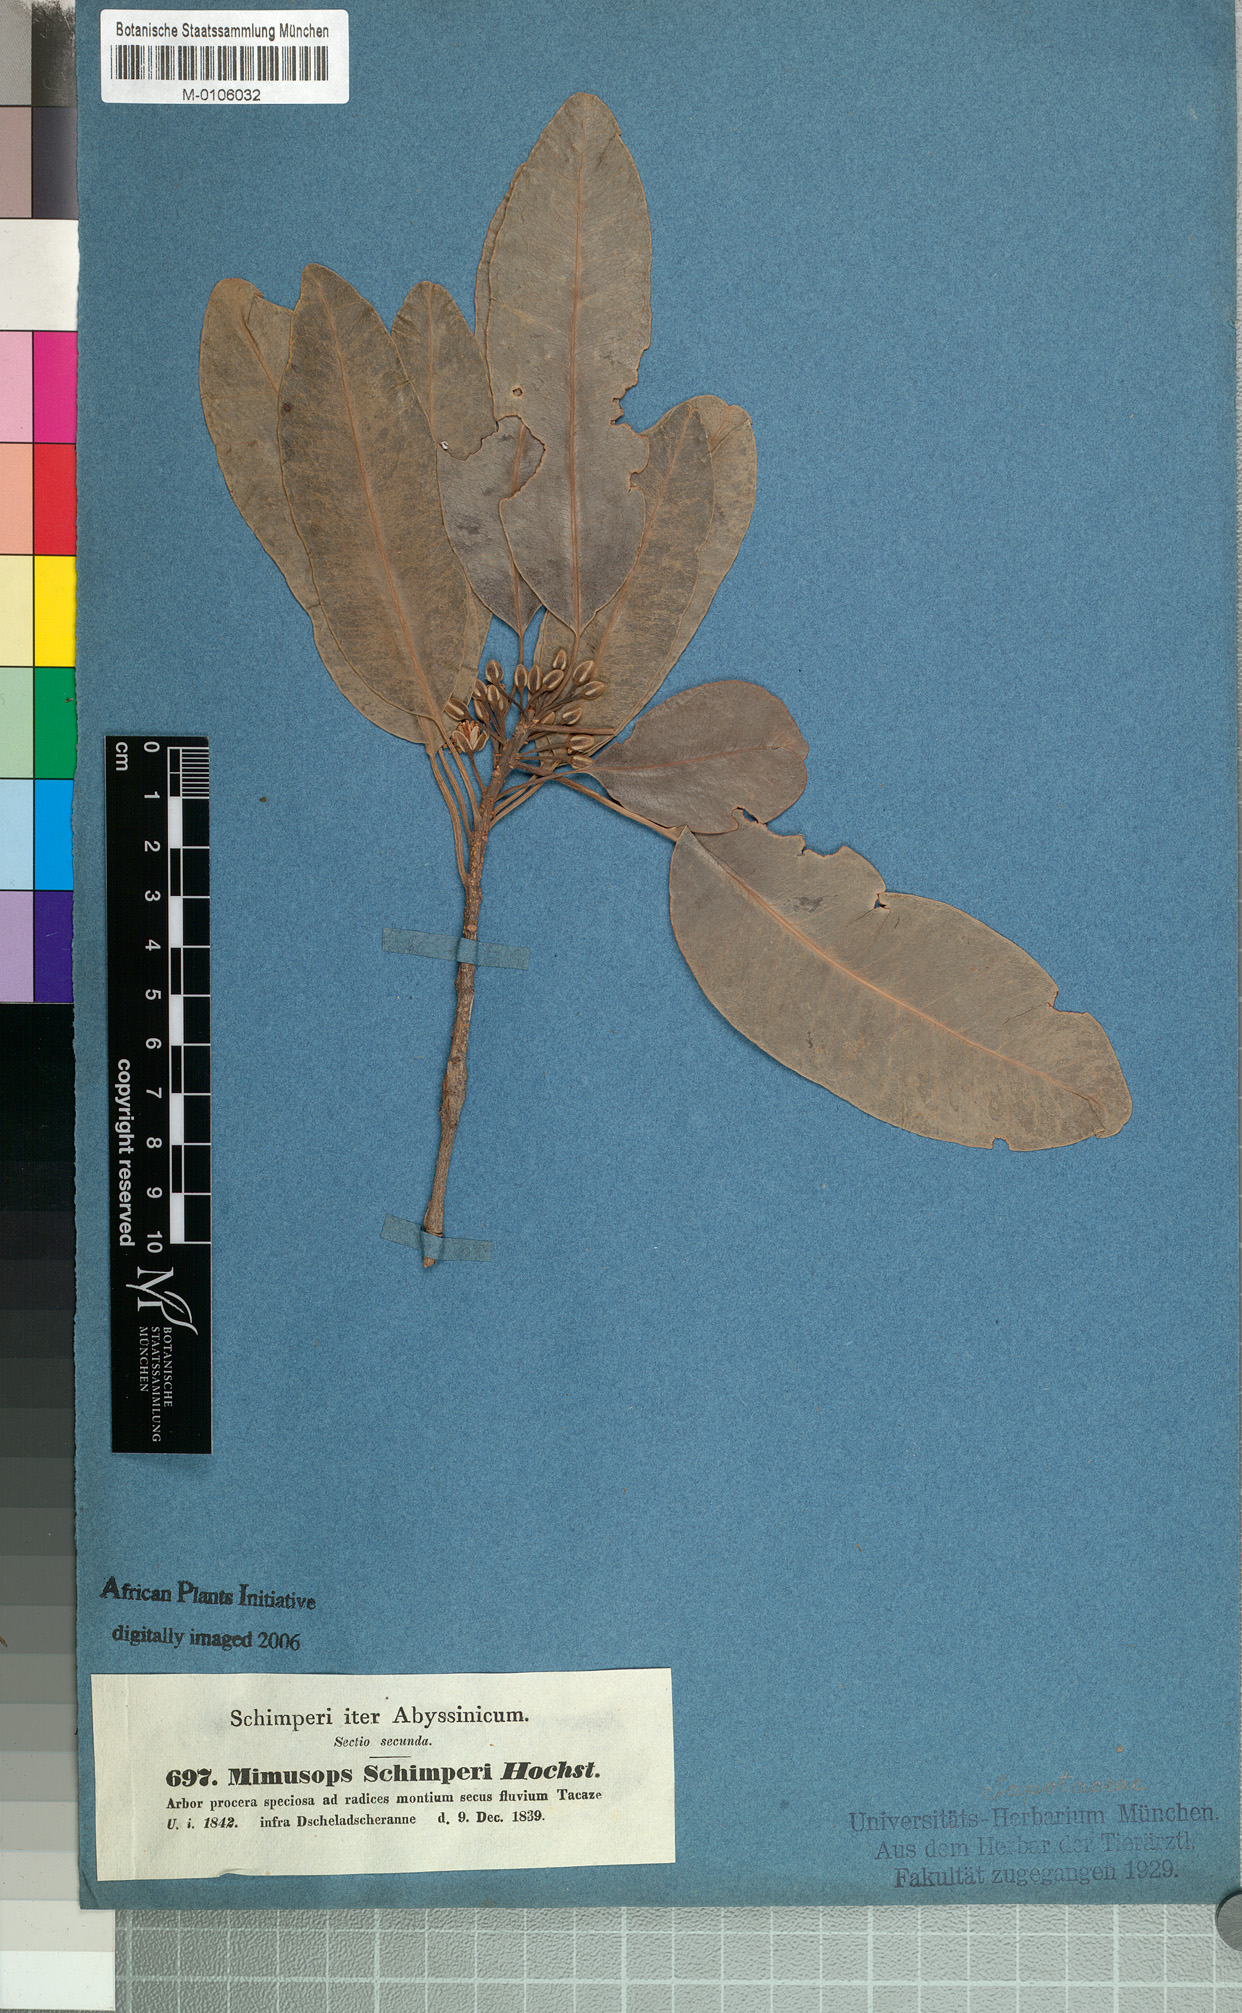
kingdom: Plantae
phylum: Tracheophyta
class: Magnoliopsida
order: Ericales
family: Sapotaceae
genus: Mimusops
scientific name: Mimusops laurifolia
